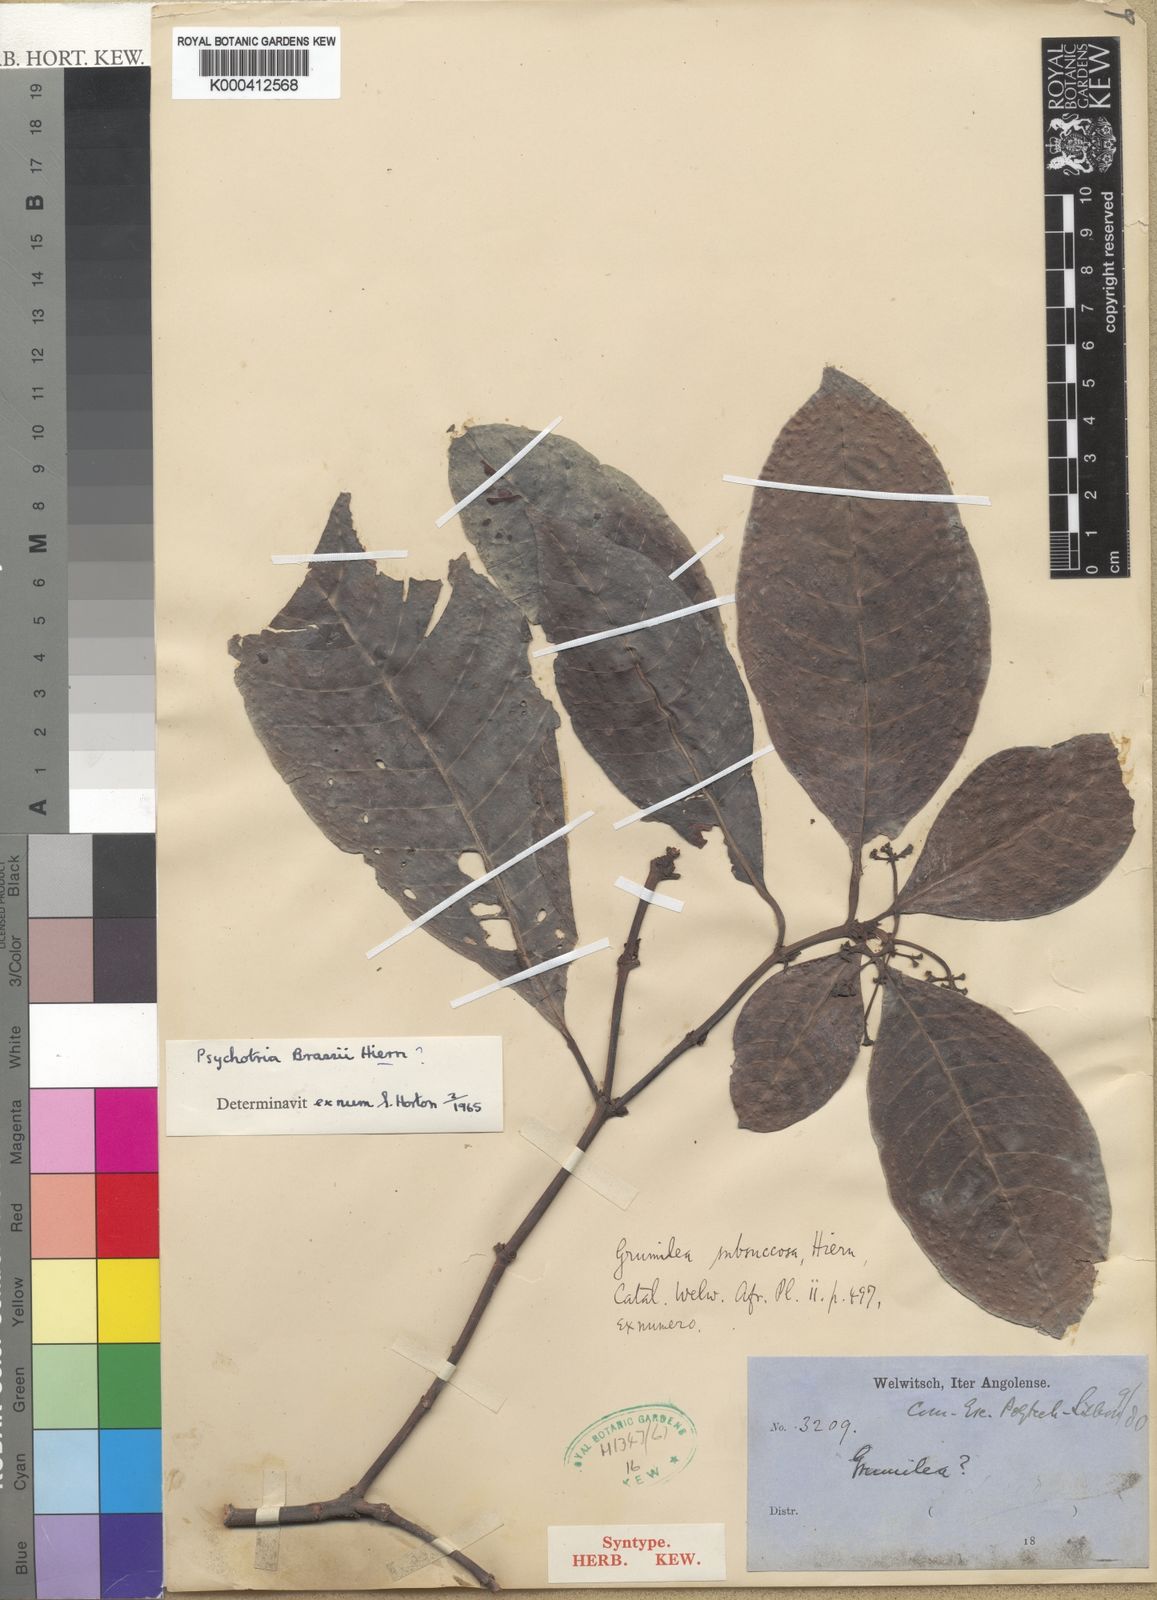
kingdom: Plantae
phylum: Tracheophyta
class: Magnoliopsida
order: Gentianales
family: Rubiaceae
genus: Psychotria
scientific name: Psychotria brassii
